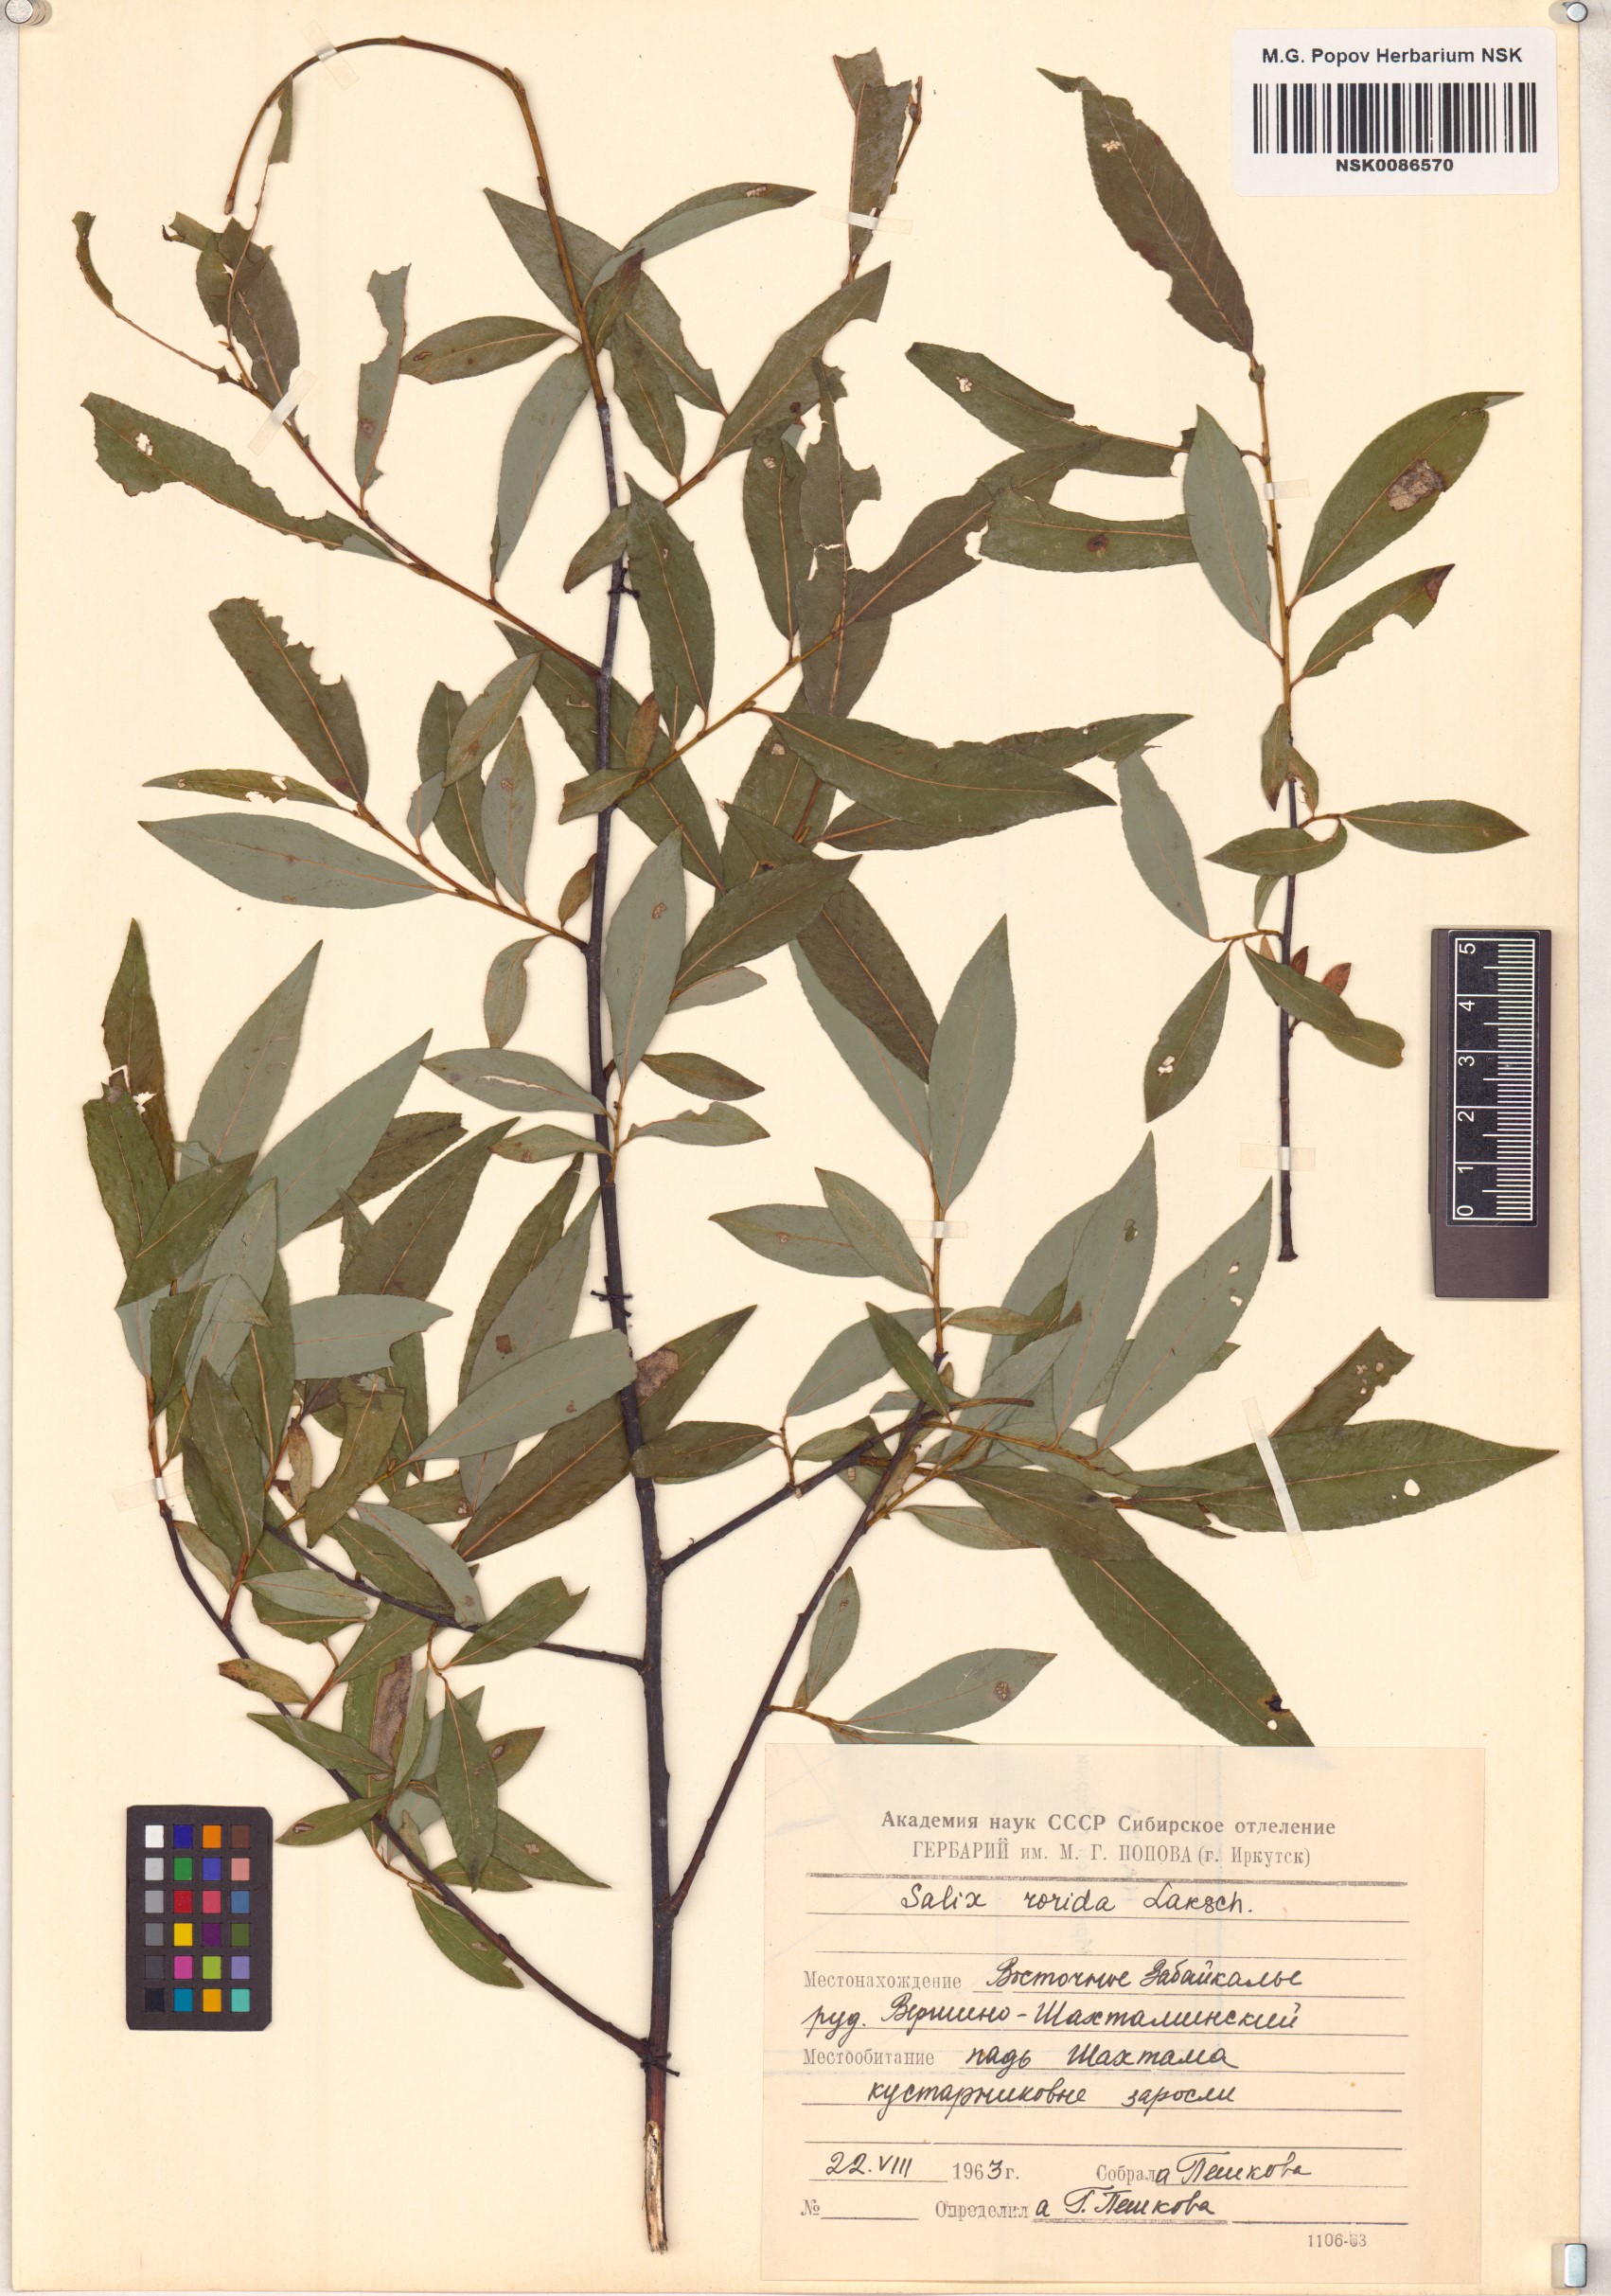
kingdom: Plantae
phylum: Tracheophyta
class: Magnoliopsida
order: Malpighiales
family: Salicaceae
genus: Salix
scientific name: Salix rorida
